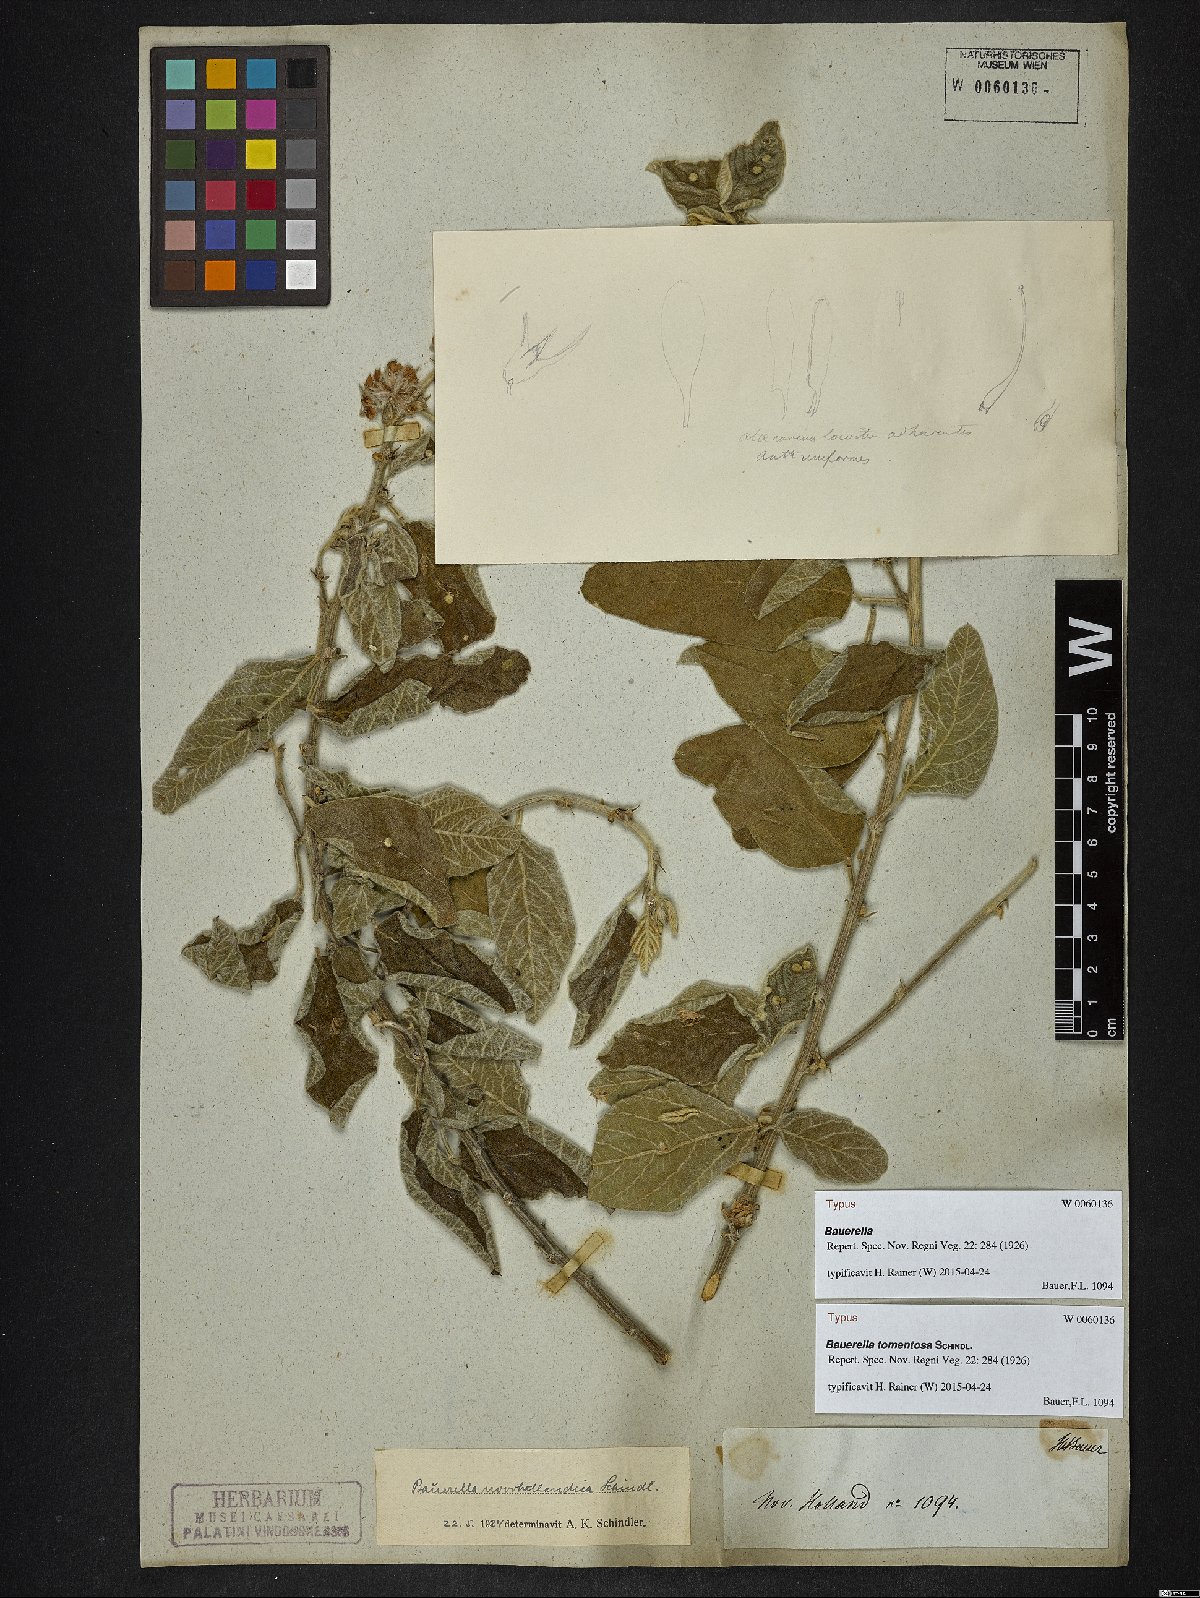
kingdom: Plantae
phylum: Tracheophyta
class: Magnoliopsida
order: Fabales
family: Fabaceae
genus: Cullen
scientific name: Cullen Bauerella tomentosa
